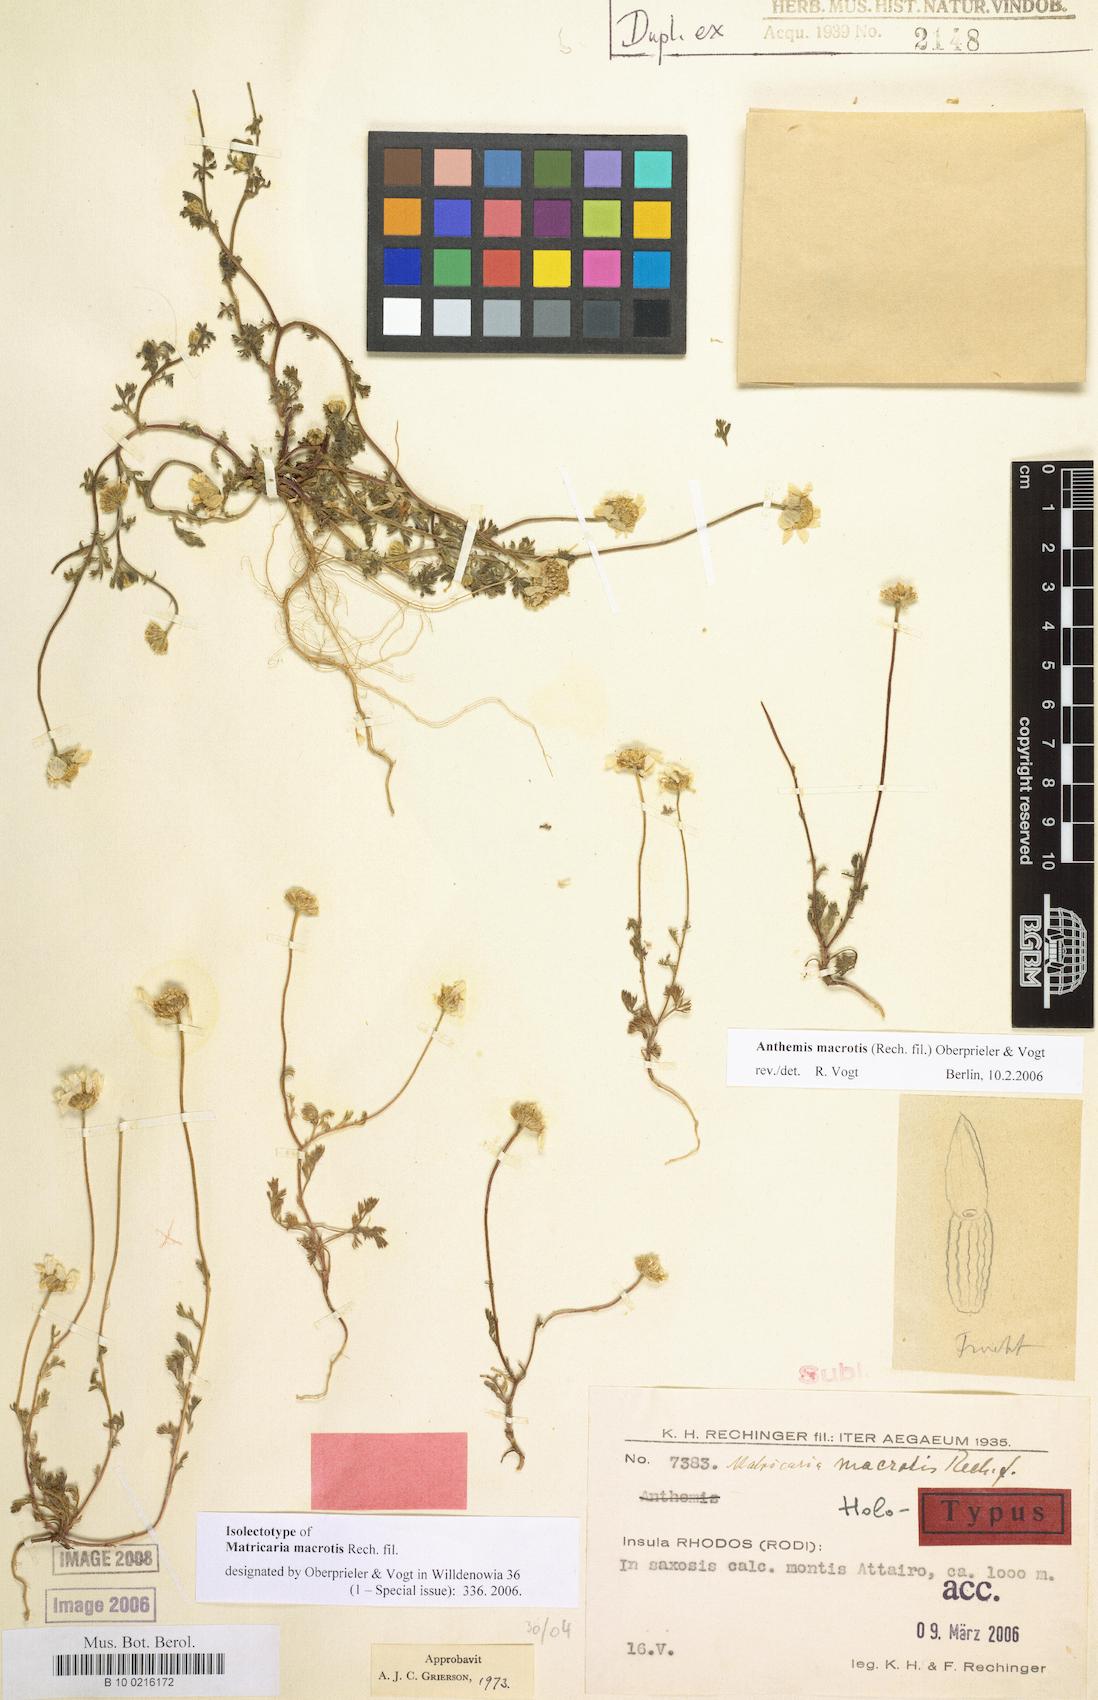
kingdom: Plantae
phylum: Tracheophyta
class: Magnoliopsida
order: Asterales
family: Asteraceae
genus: Anthemis
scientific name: Anthemis macrotis
